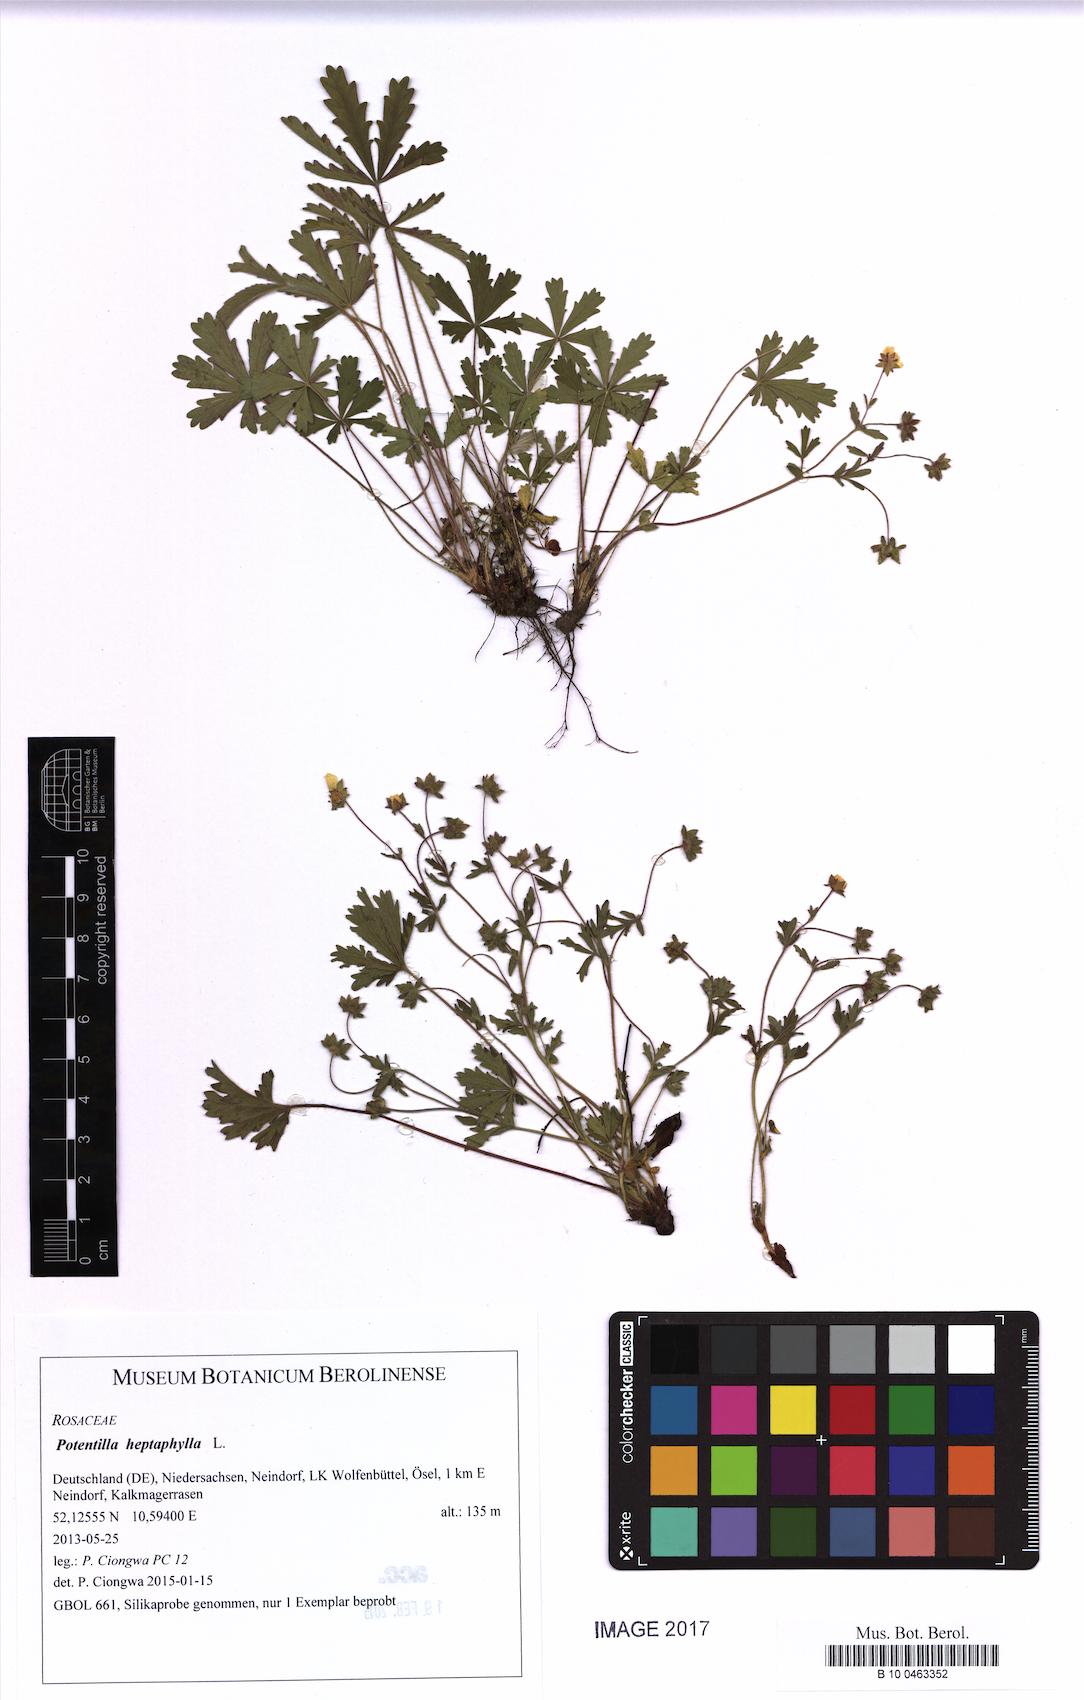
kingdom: Plantae
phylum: Tracheophyta
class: Magnoliopsida
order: Rosales
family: Rosaceae
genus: Potentilla
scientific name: Potentilla heptaphylla
